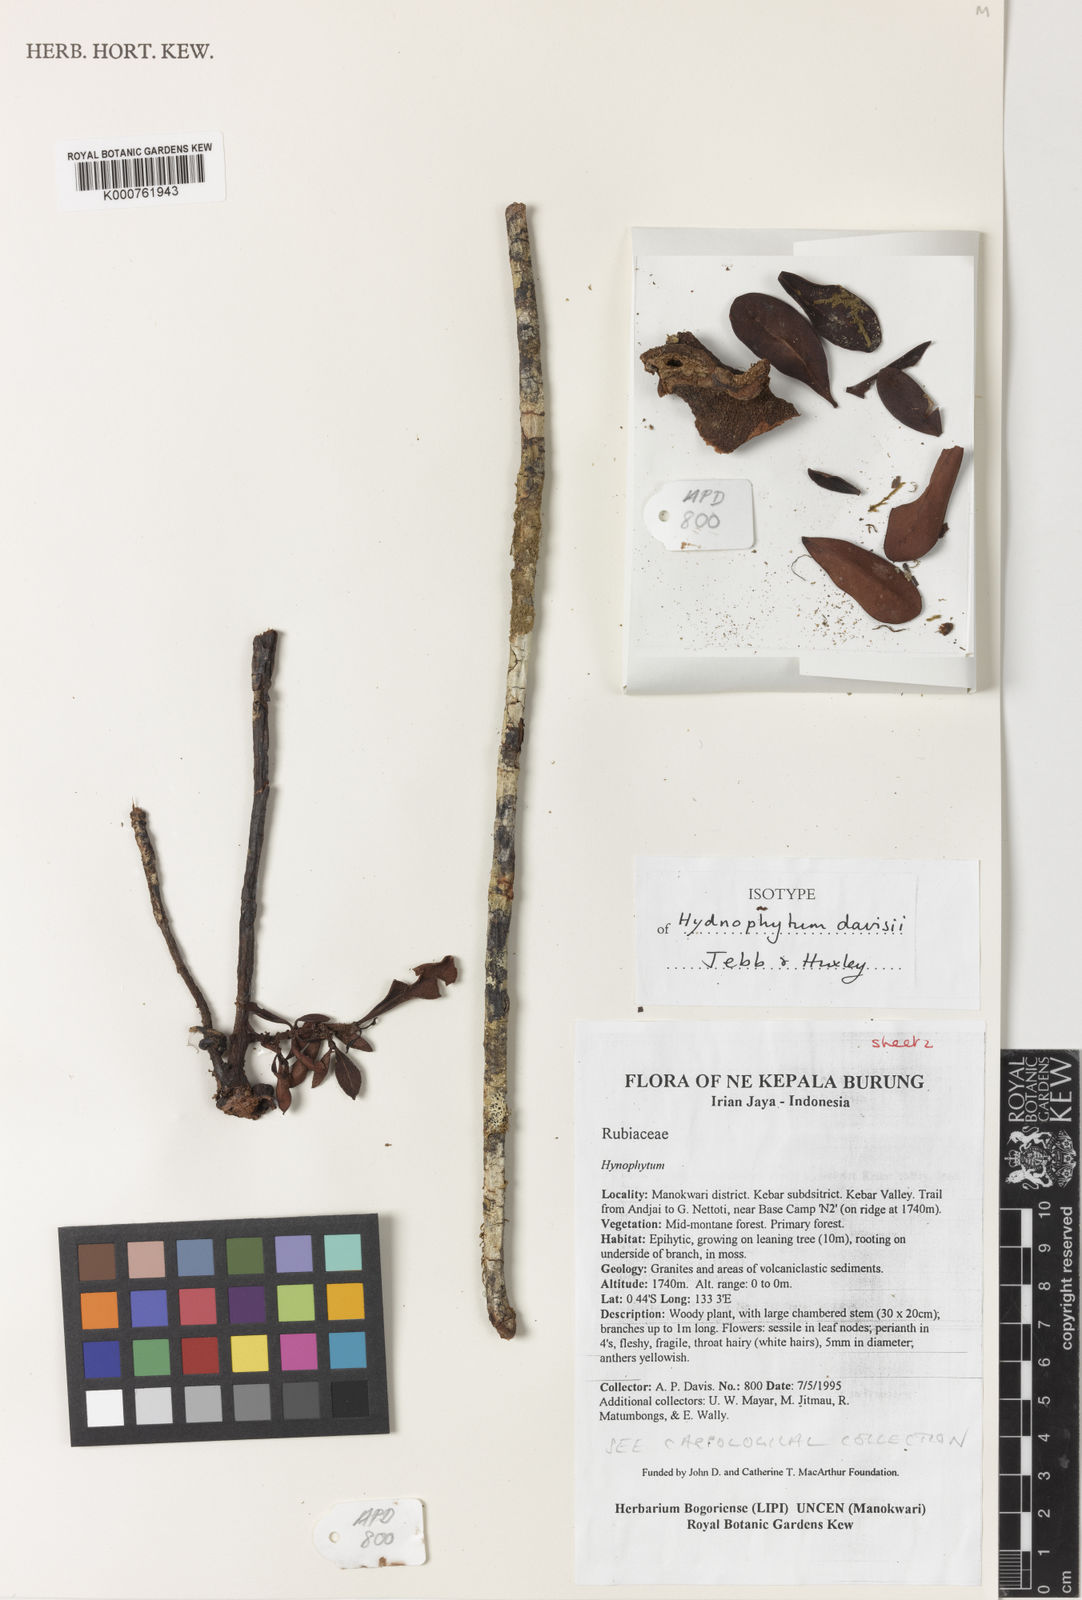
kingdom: Plantae
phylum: Tracheophyta
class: Magnoliopsida
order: Gentianales
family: Rubiaceae
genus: Hydnophytum
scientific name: Hydnophytum
